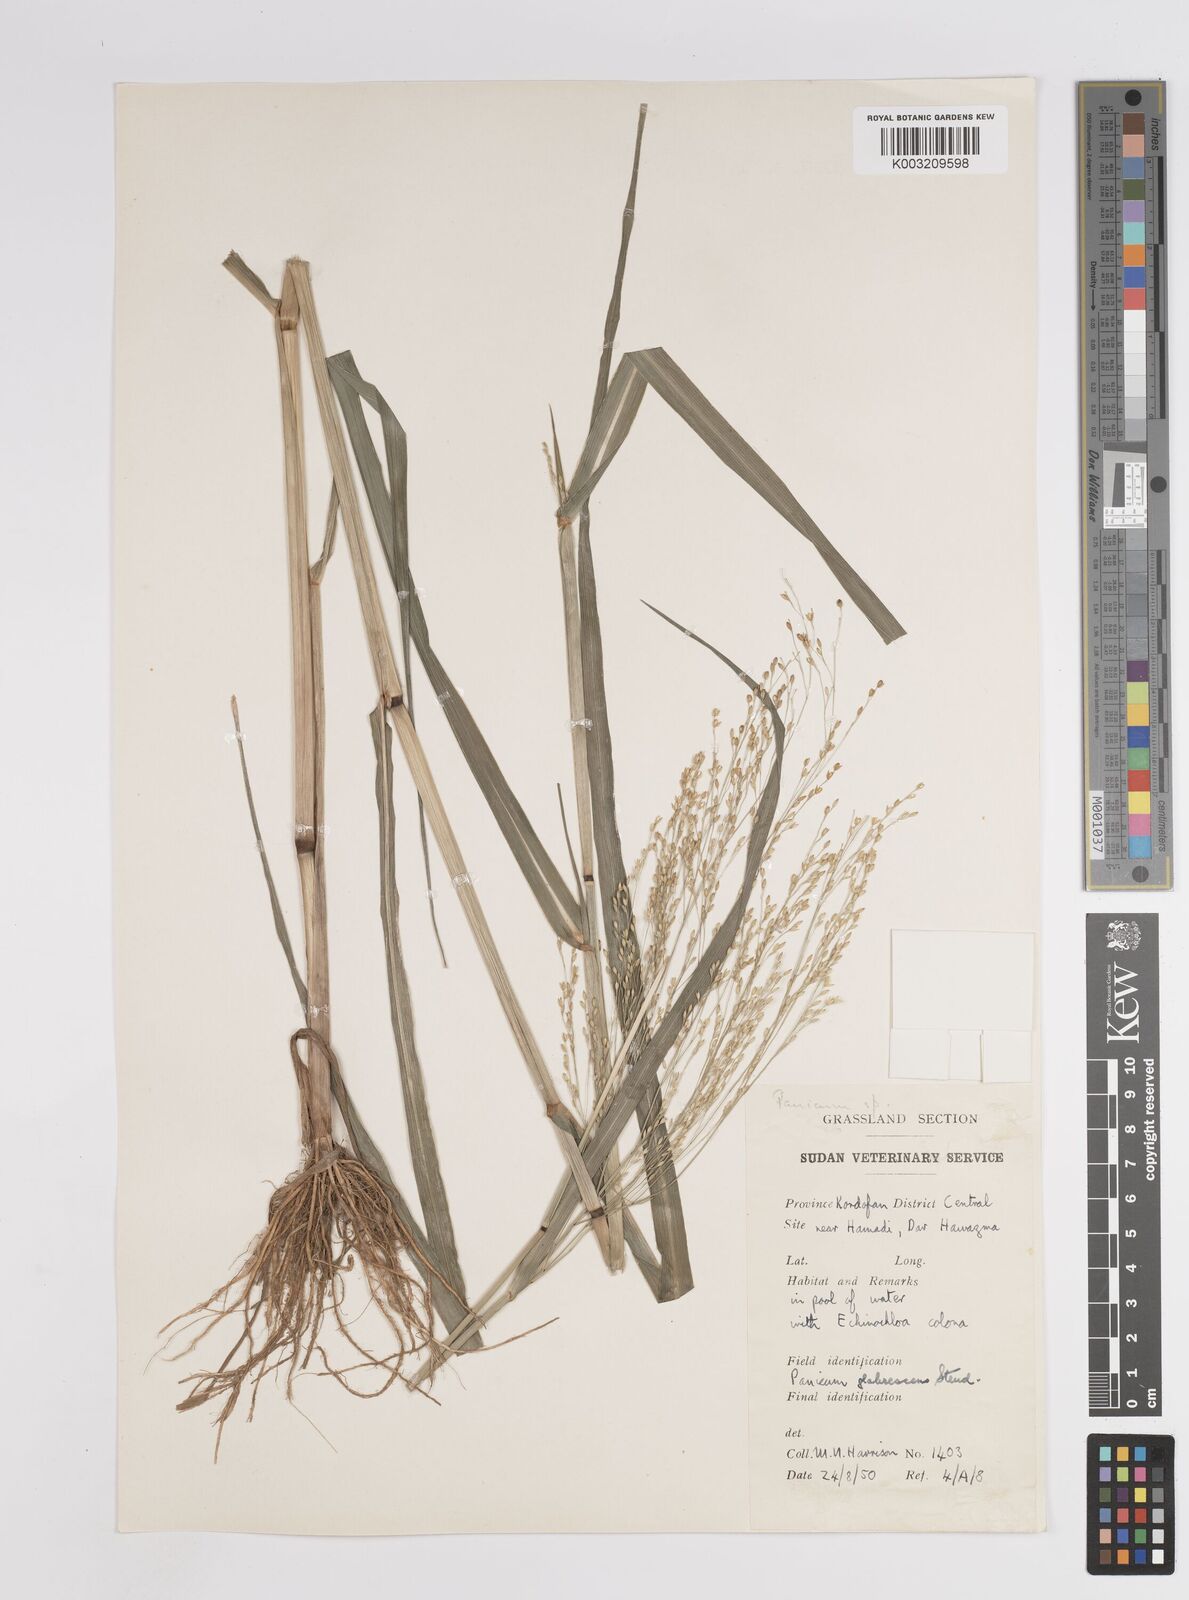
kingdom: Plantae
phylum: Tracheophyta
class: Liliopsida
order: Poales
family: Poaceae
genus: Panicum
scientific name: Panicum subalbidum
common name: Elbow buffalo grass
